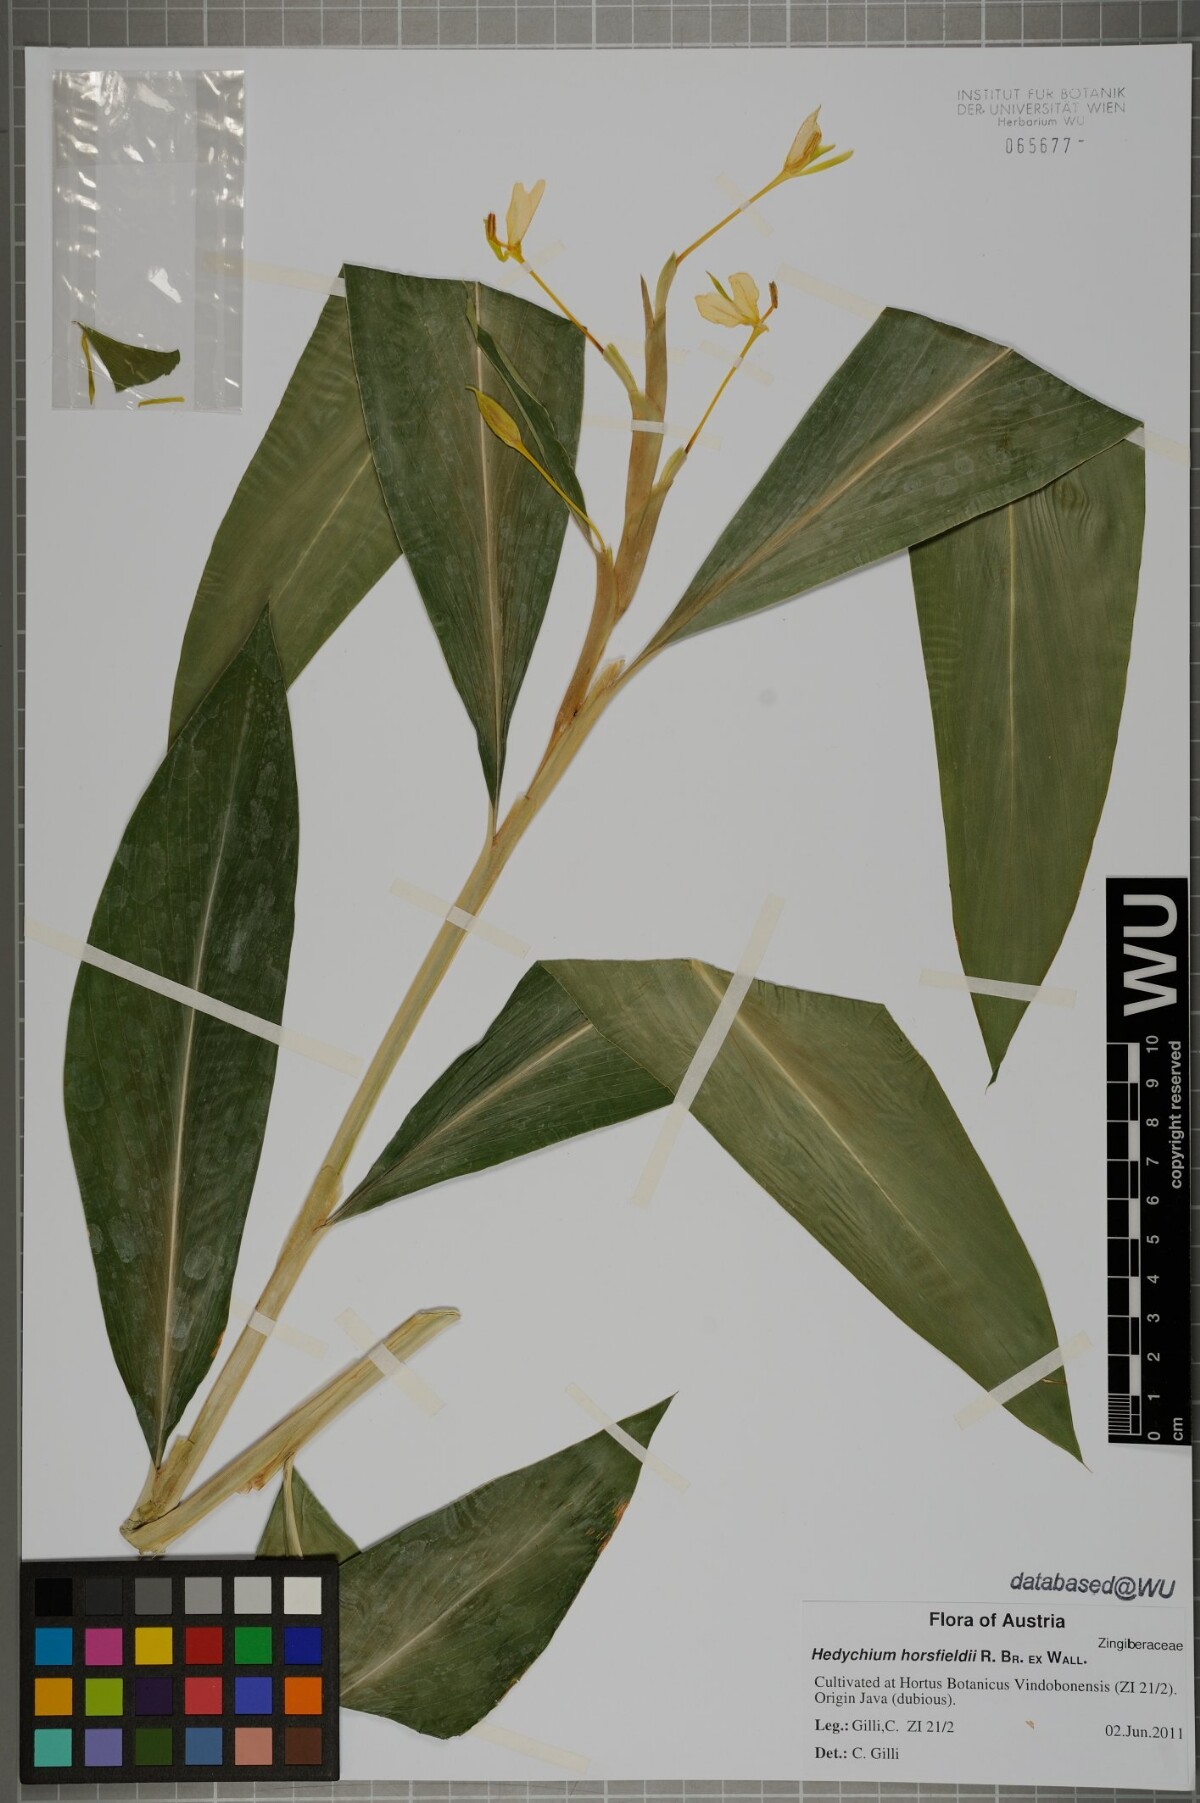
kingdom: Plantae
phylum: Tracheophyta
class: Liliopsida
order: Zingiberales
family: Zingiberaceae
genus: Hedychium
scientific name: Hedychium horsfieldii
